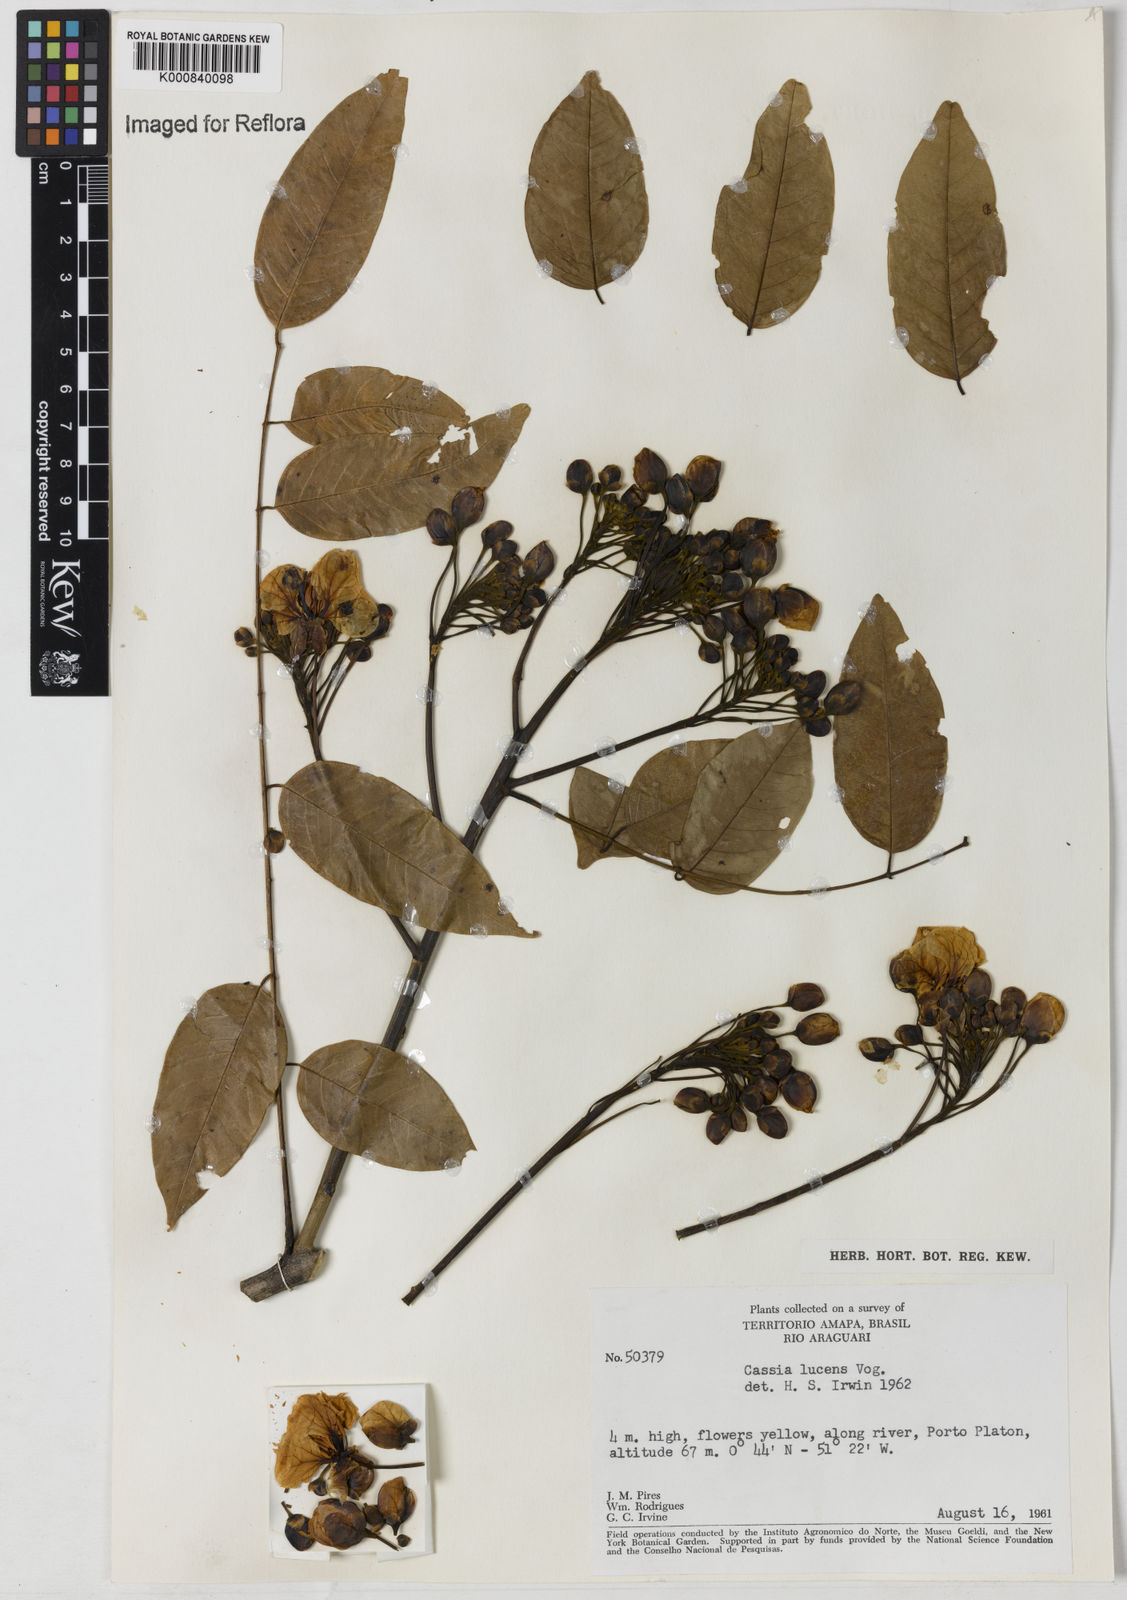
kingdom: Plantae
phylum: Tracheophyta
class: Magnoliopsida
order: Fabales
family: Fabaceae
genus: Senna
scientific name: Senna silvestris
